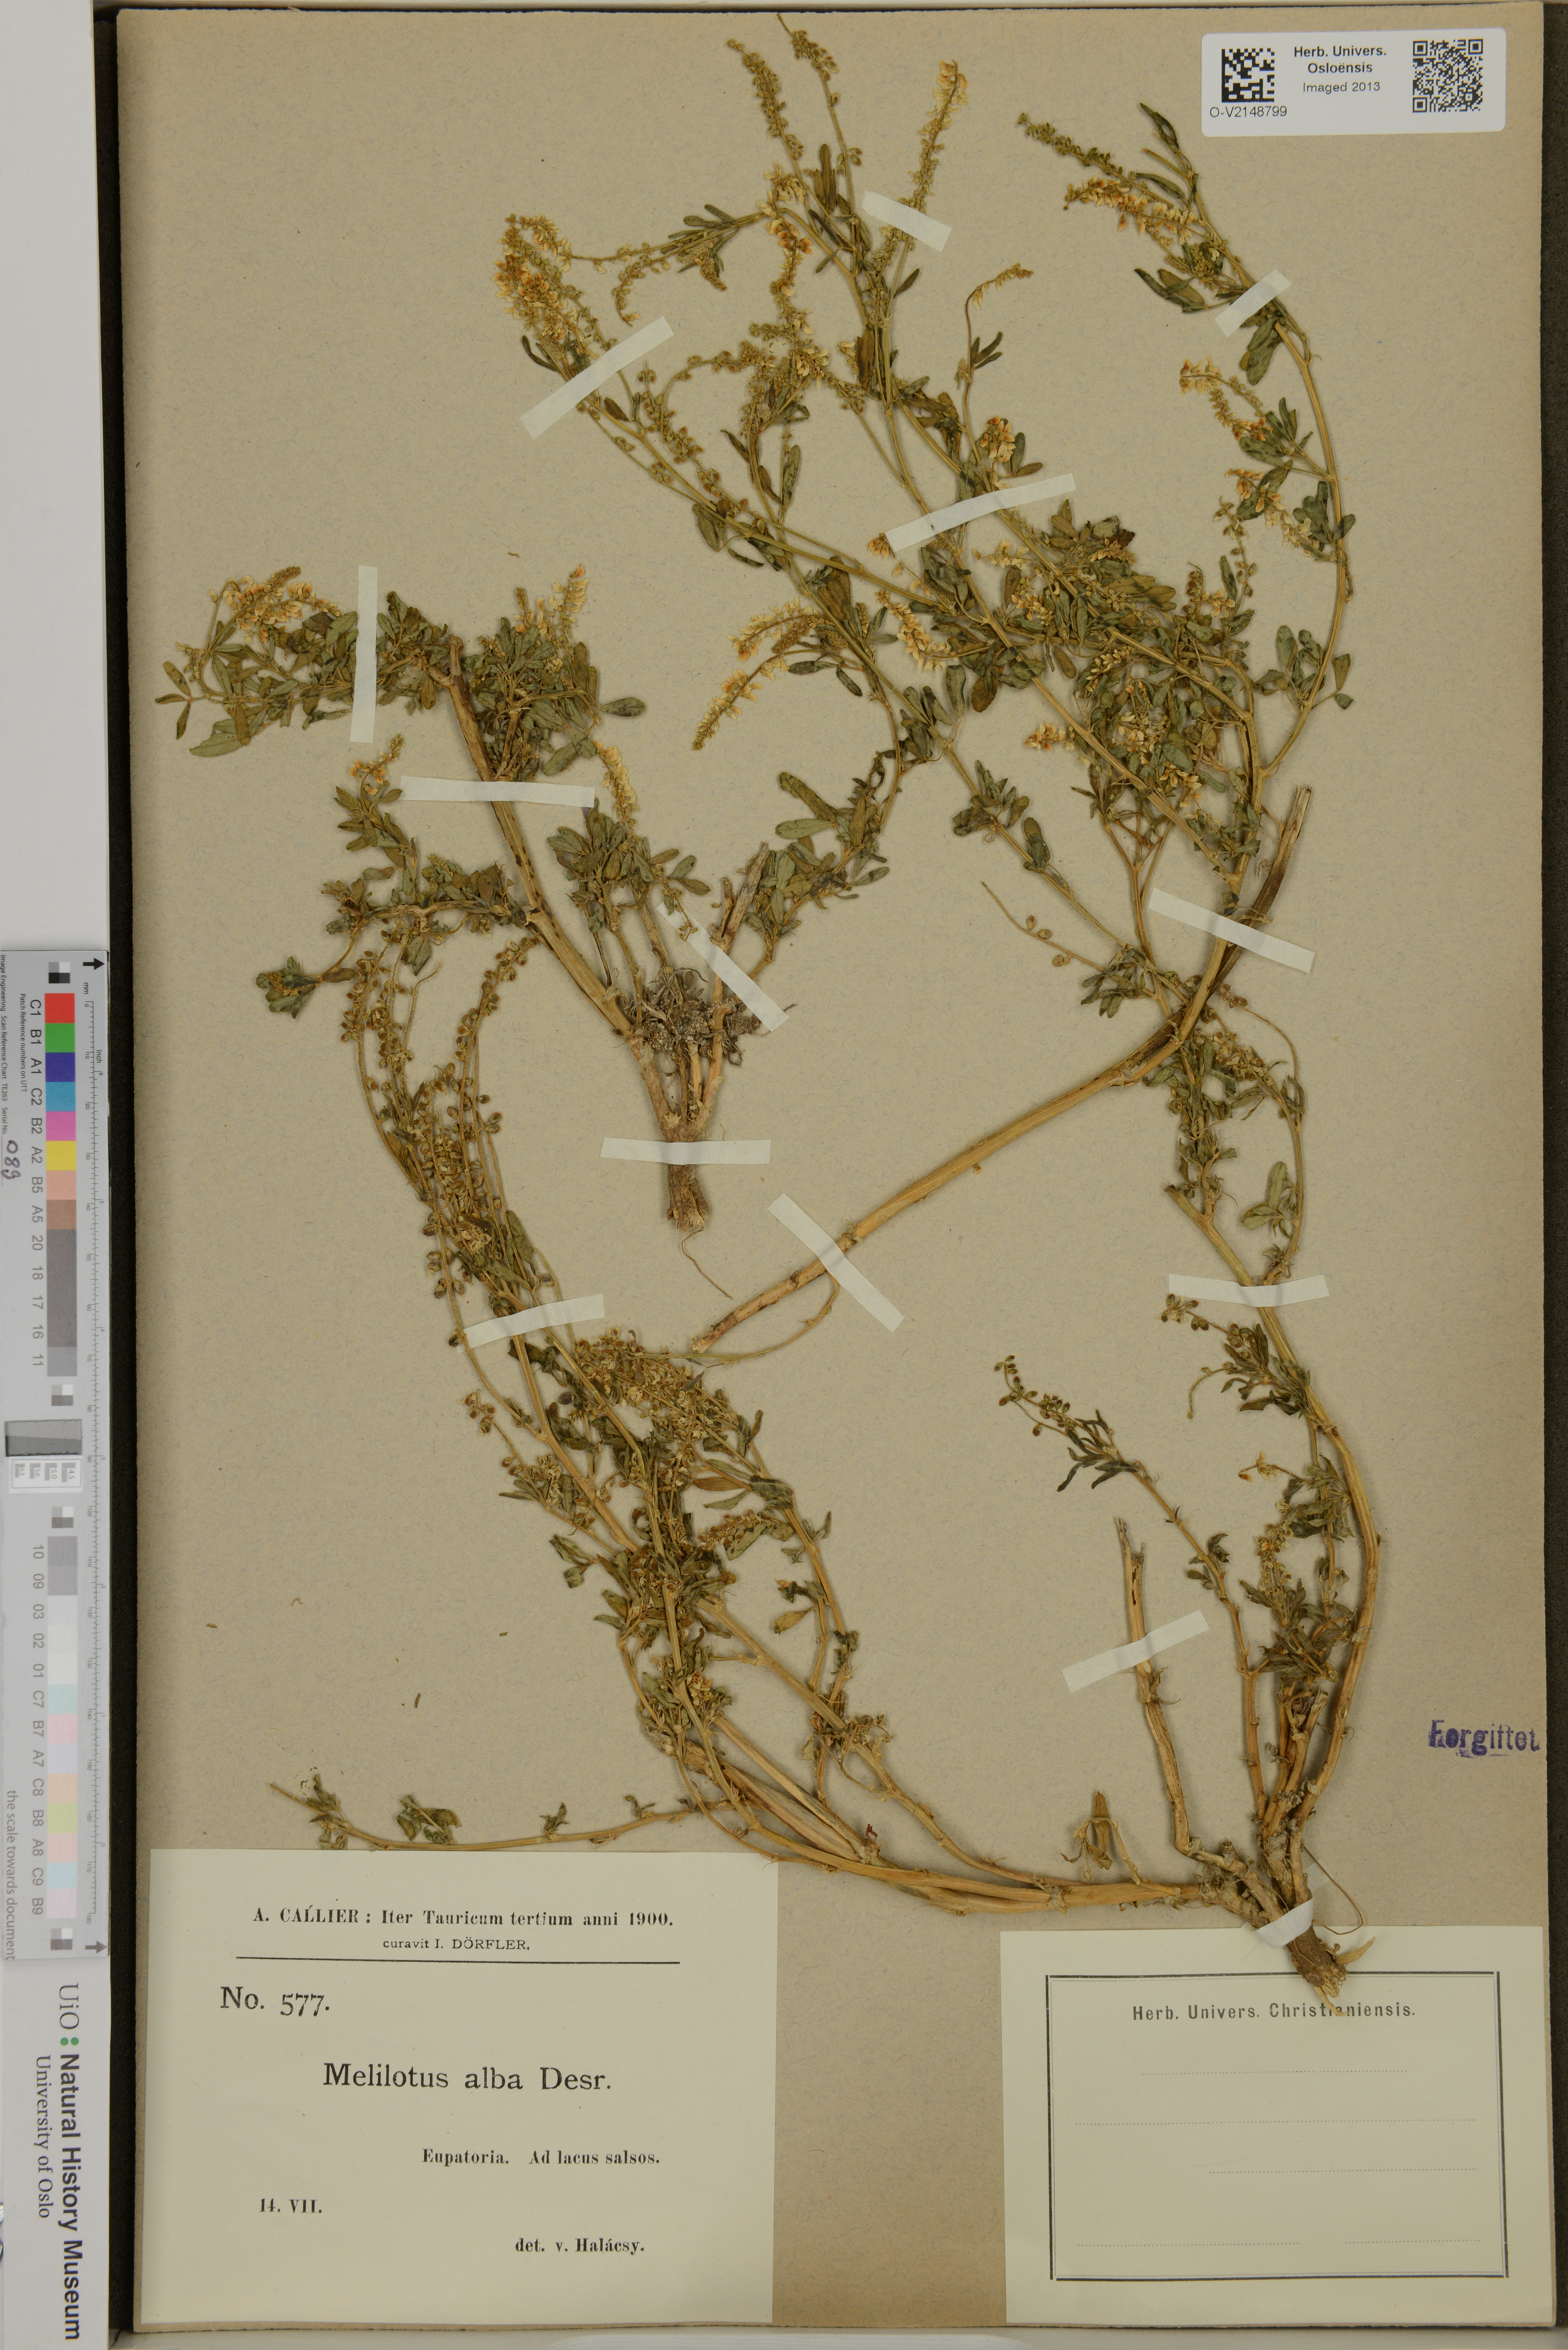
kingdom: Plantae
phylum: Tracheophyta
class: Magnoliopsida
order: Fabales
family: Fabaceae
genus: Melilotus
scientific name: Melilotus albus
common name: White melilot
